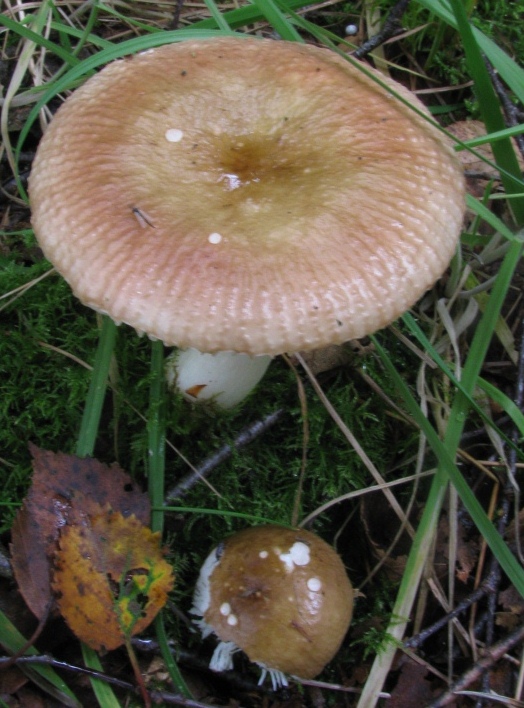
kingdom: Fungi
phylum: Basidiomycota
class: Agaricomycetes
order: Russulales
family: Russulaceae
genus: Russula
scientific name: Russula nitida
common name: året skørhat
